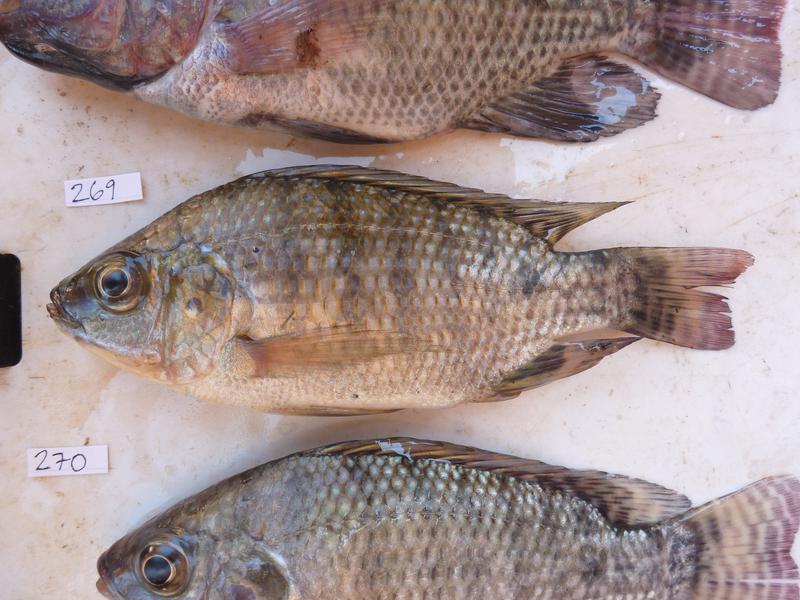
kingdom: Animalia
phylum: Chordata
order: Perciformes
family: Cichlidae
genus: Oreochromis
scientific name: Oreochromis niloticus
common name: Nile tilapia
